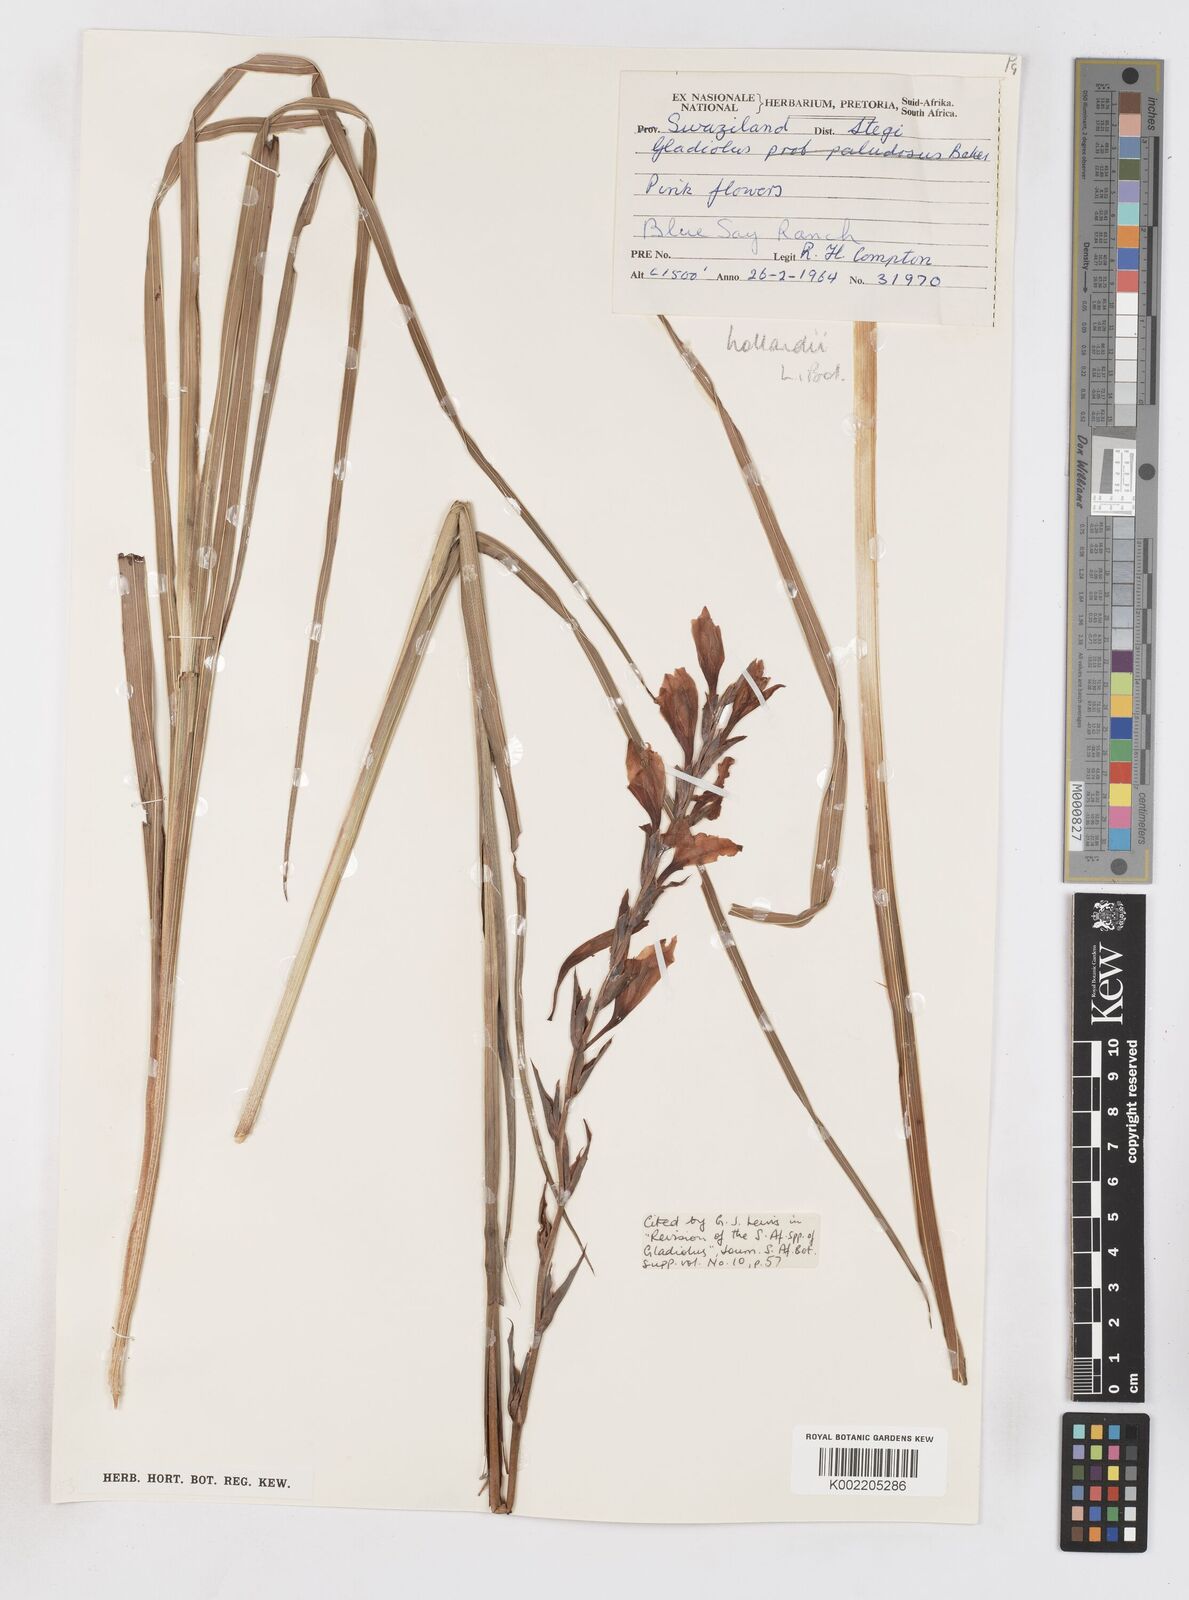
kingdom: Plantae
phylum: Tracheophyta
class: Liliopsida
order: Asparagales
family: Iridaceae
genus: Gladiolus
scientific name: Gladiolus hollandii
